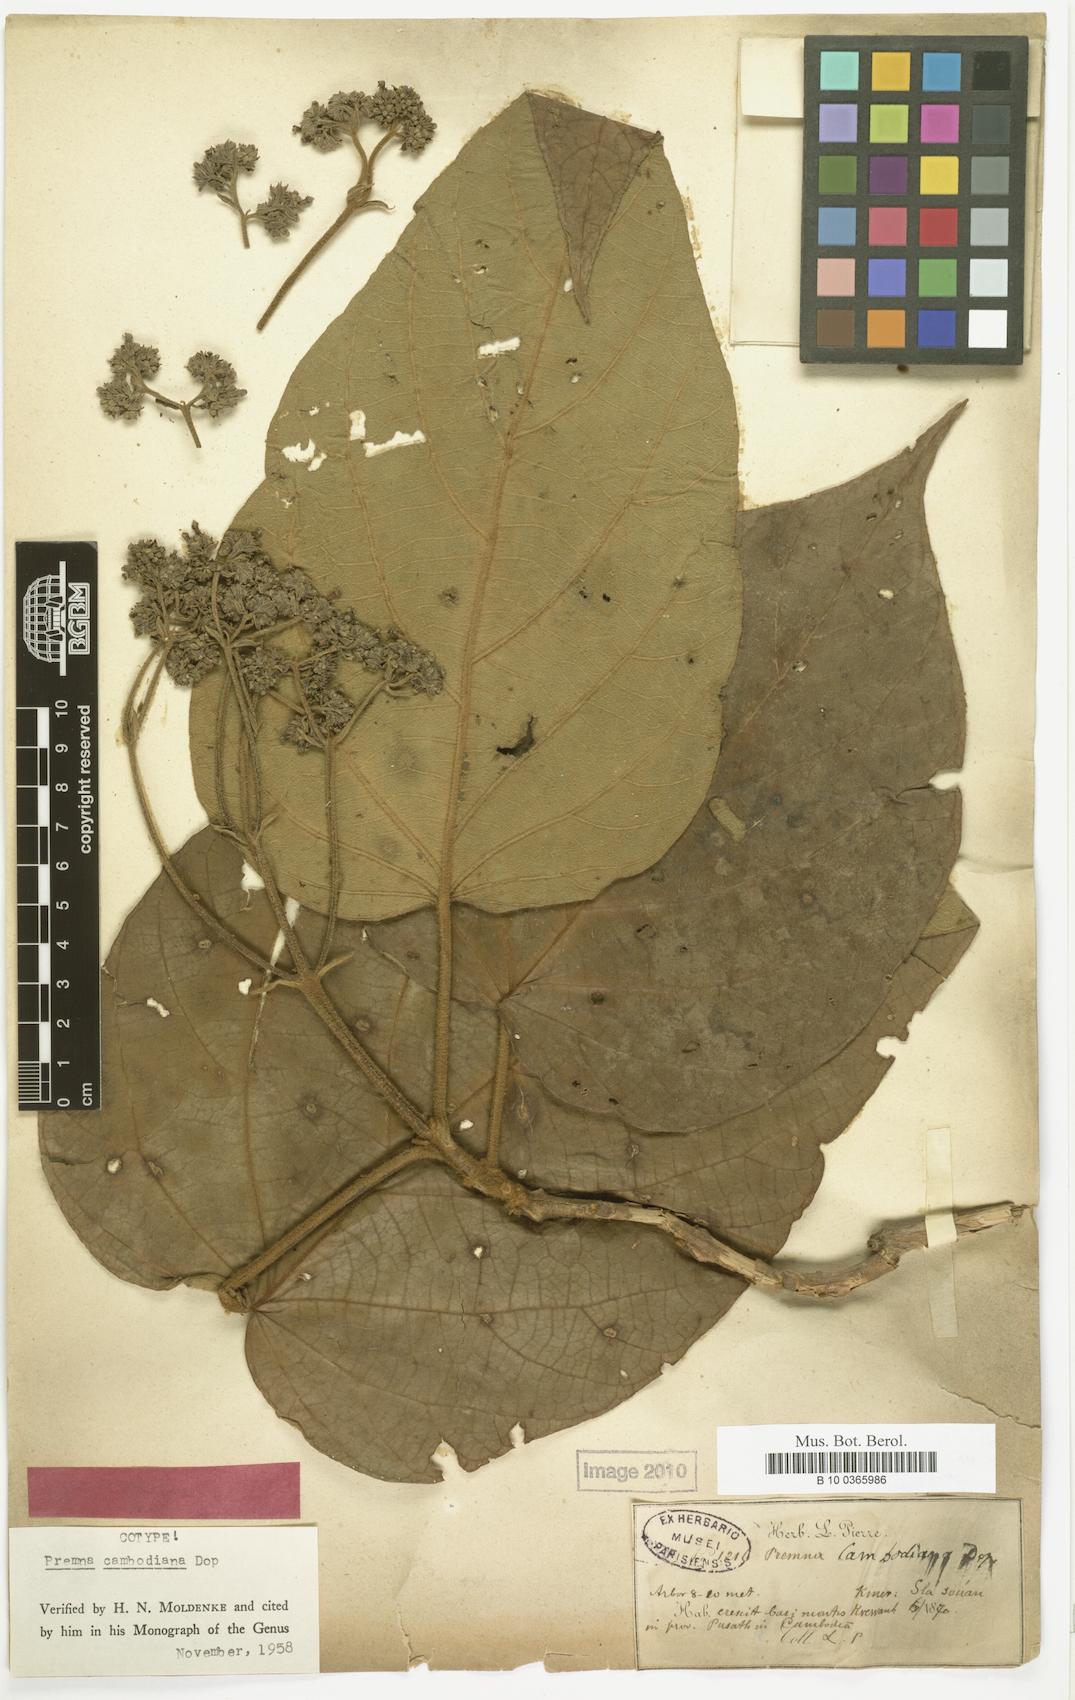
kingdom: Plantae
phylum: Tracheophyta
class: Magnoliopsida
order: Lamiales
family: Lamiaceae
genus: Premna
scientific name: Premna cambodiana
